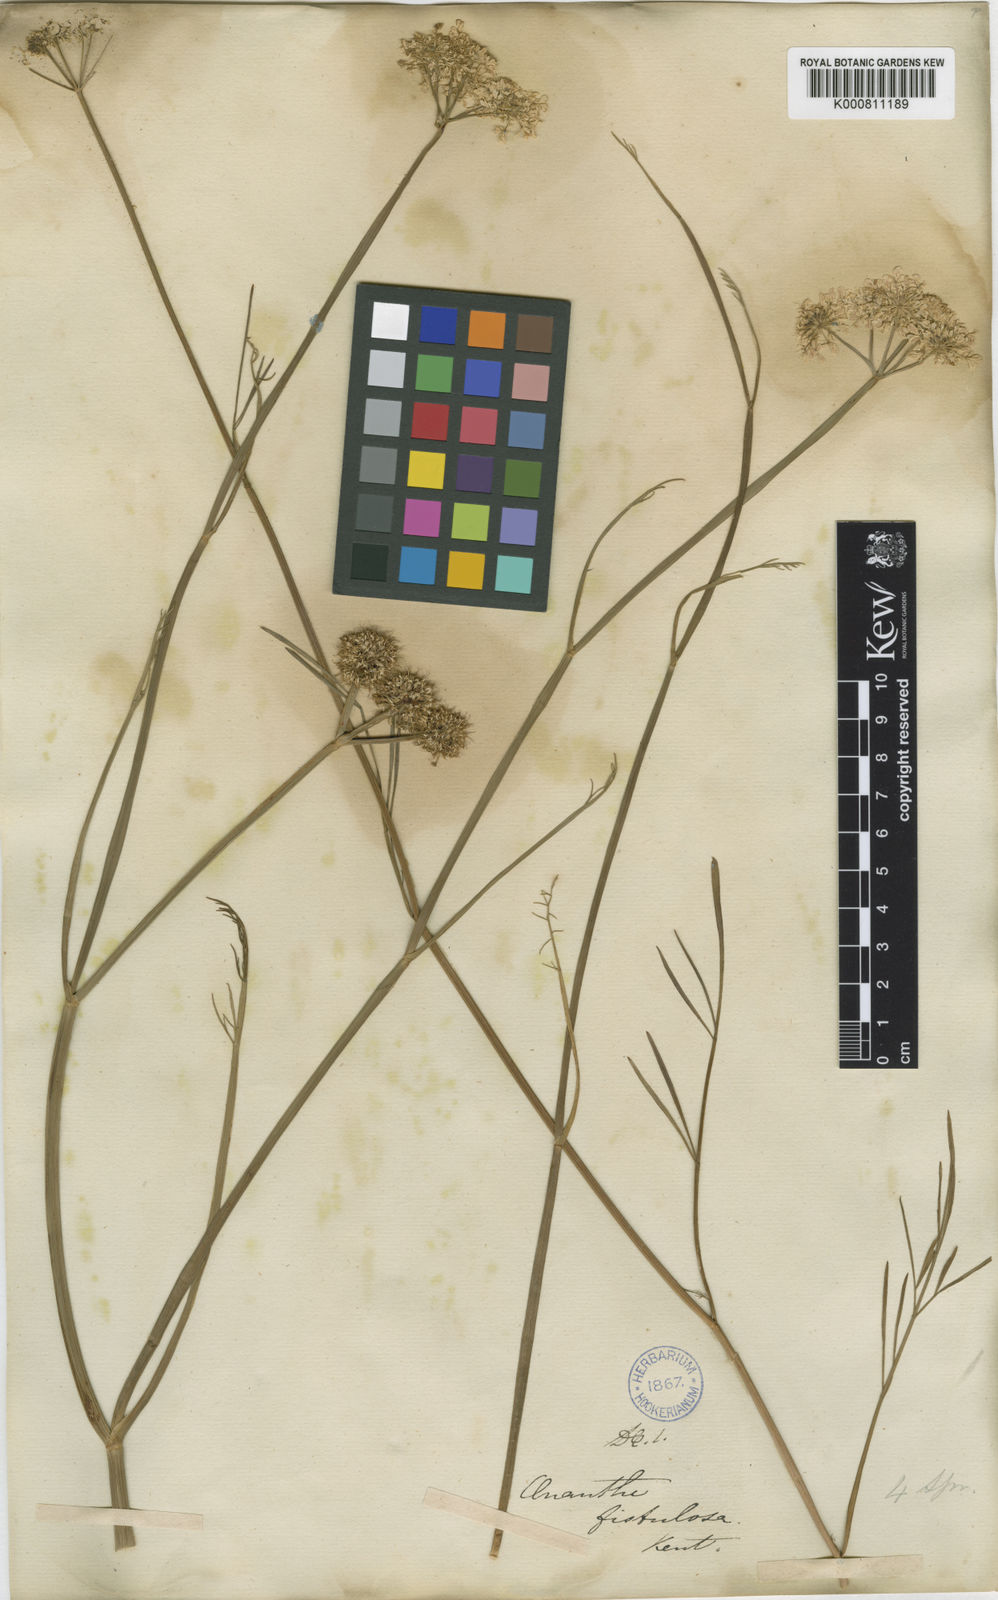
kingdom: Plantae
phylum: Tracheophyta
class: Magnoliopsida
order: Apiales
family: Apiaceae
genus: Oenanthe
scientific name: Oenanthe fistulosa
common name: Tubular water-dropwort
